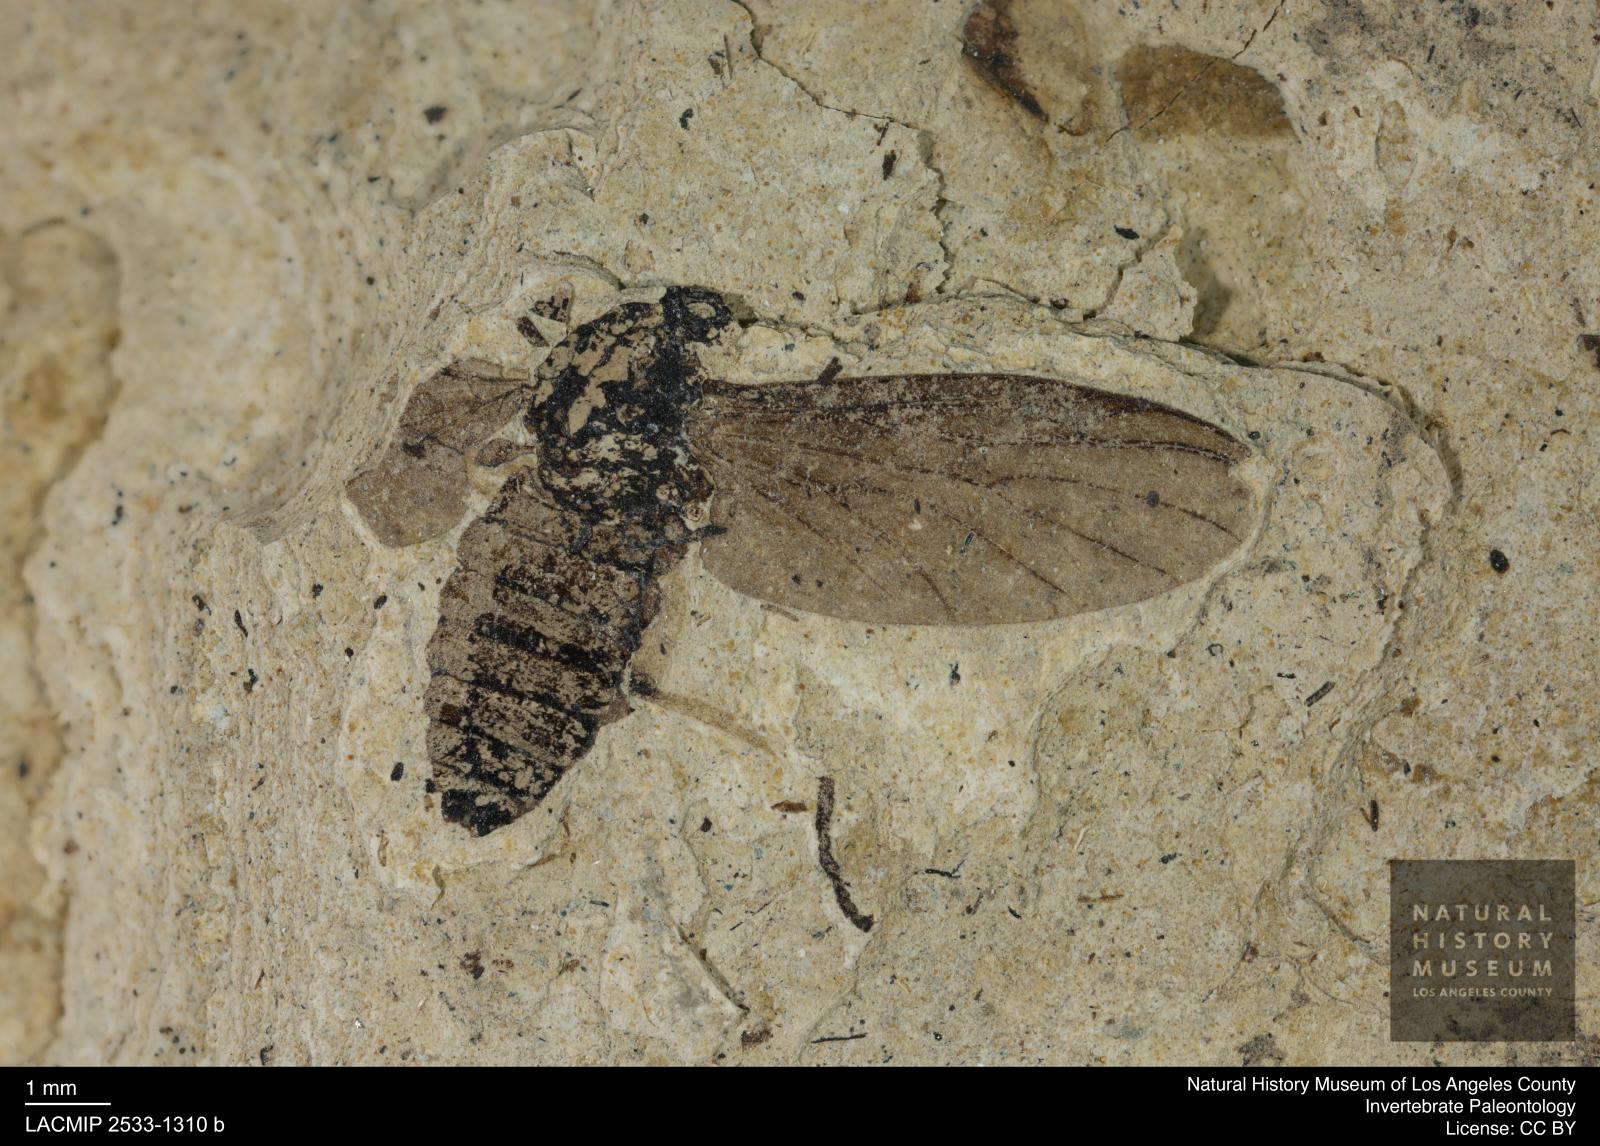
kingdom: Animalia
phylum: Arthropoda
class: Insecta
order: Diptera
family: Bibionidae
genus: Plecia
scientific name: Plecia grossa
